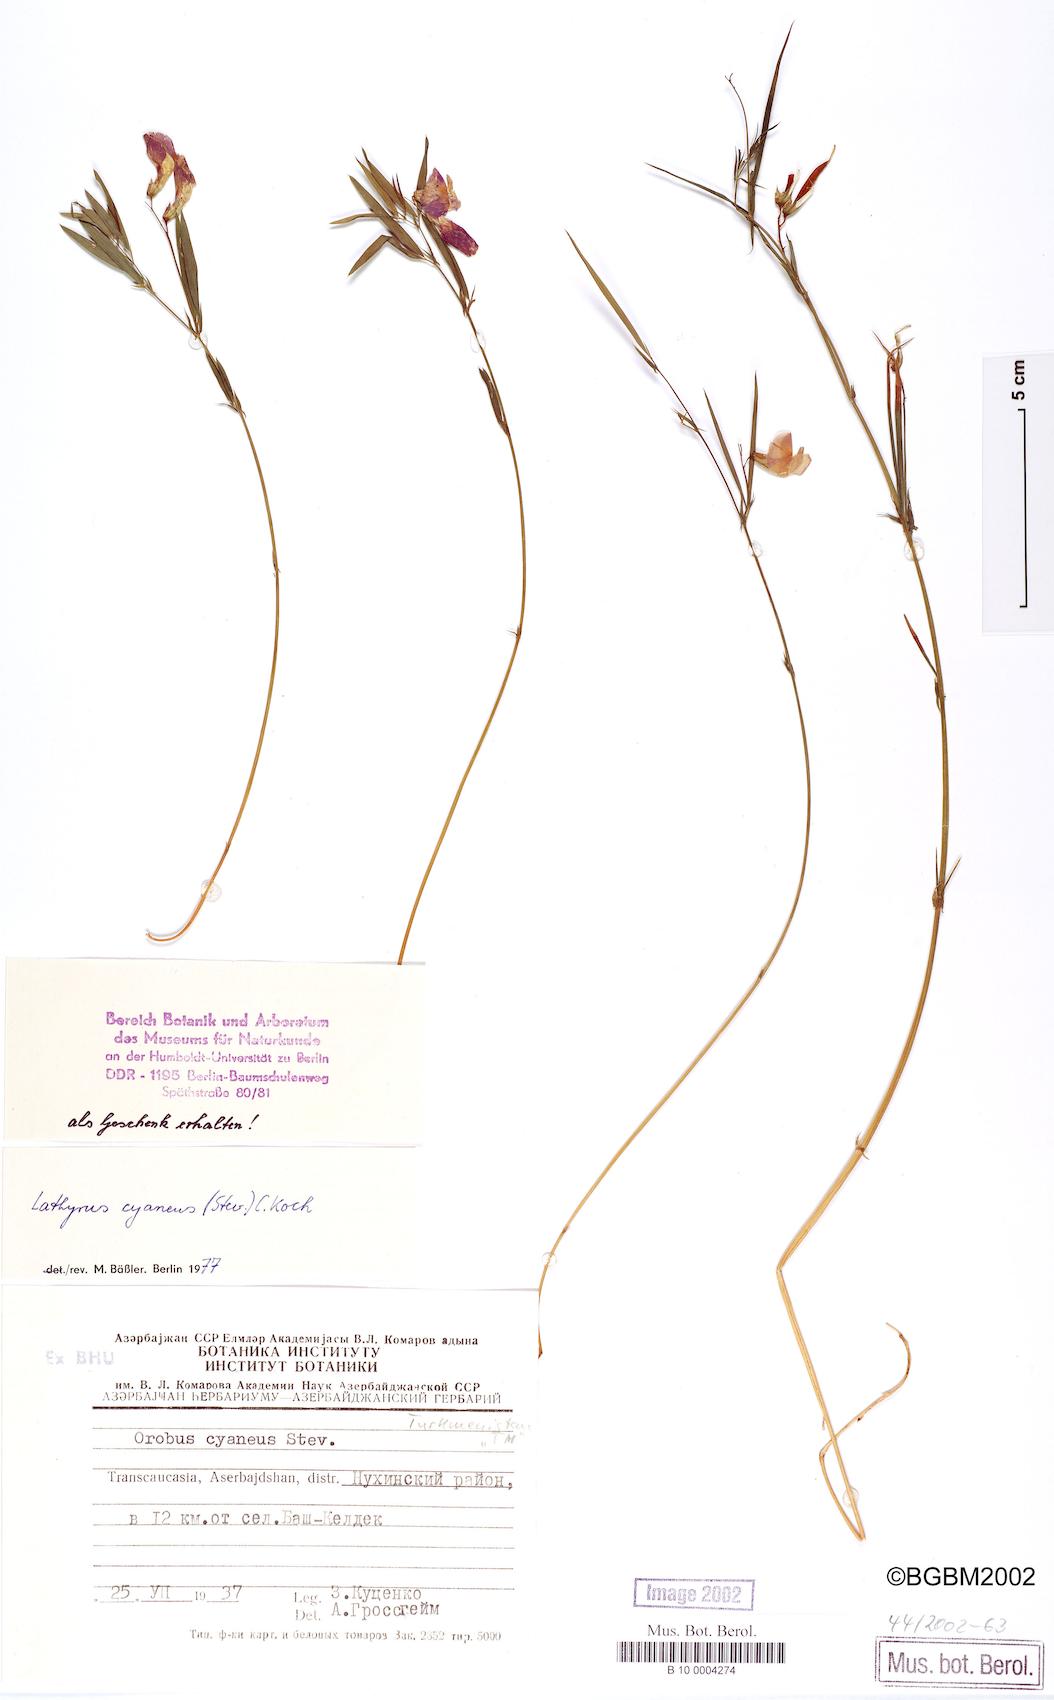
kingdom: Plantae
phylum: Tracheophyta
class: Magnoliopsida
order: Fabales
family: Fabaceae
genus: Lathyrus
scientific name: Lathyrus cyaneus
